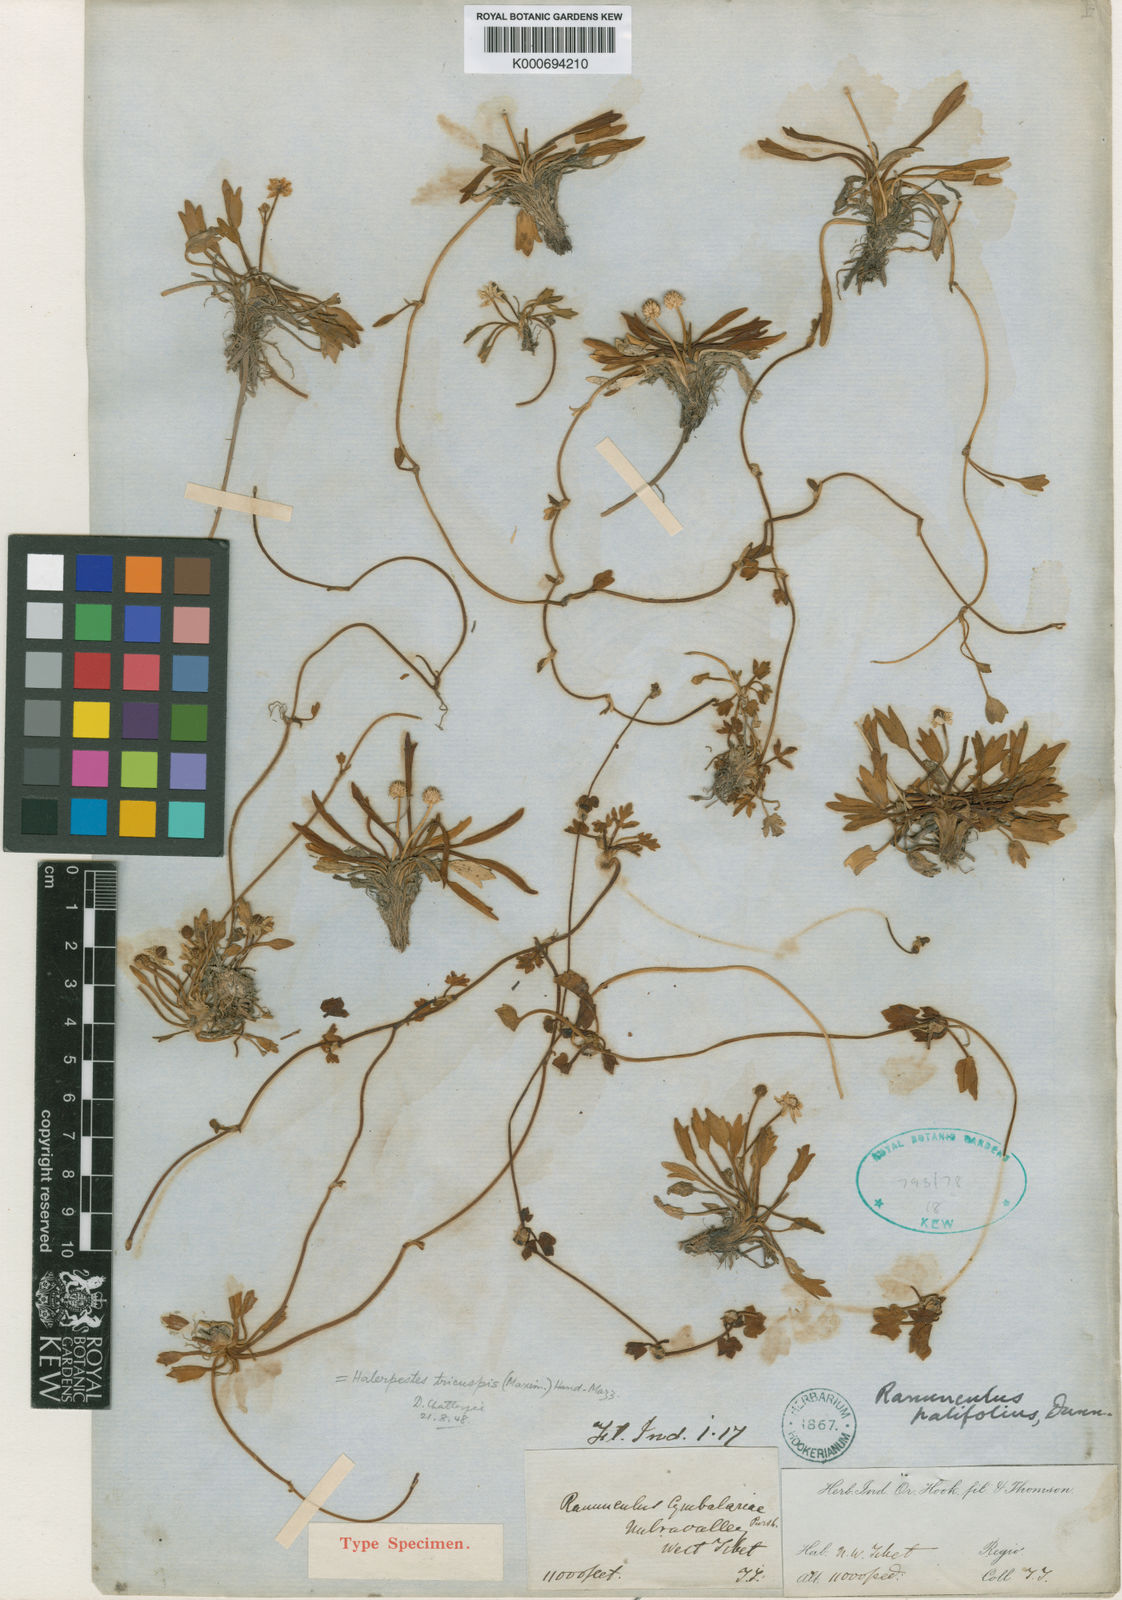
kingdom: Plantae
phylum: Tracheophyta
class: Magnoliopsida
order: Ranunculales
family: Ranunculaceae
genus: Halerpestes
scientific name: Halerpestes tricuspis
